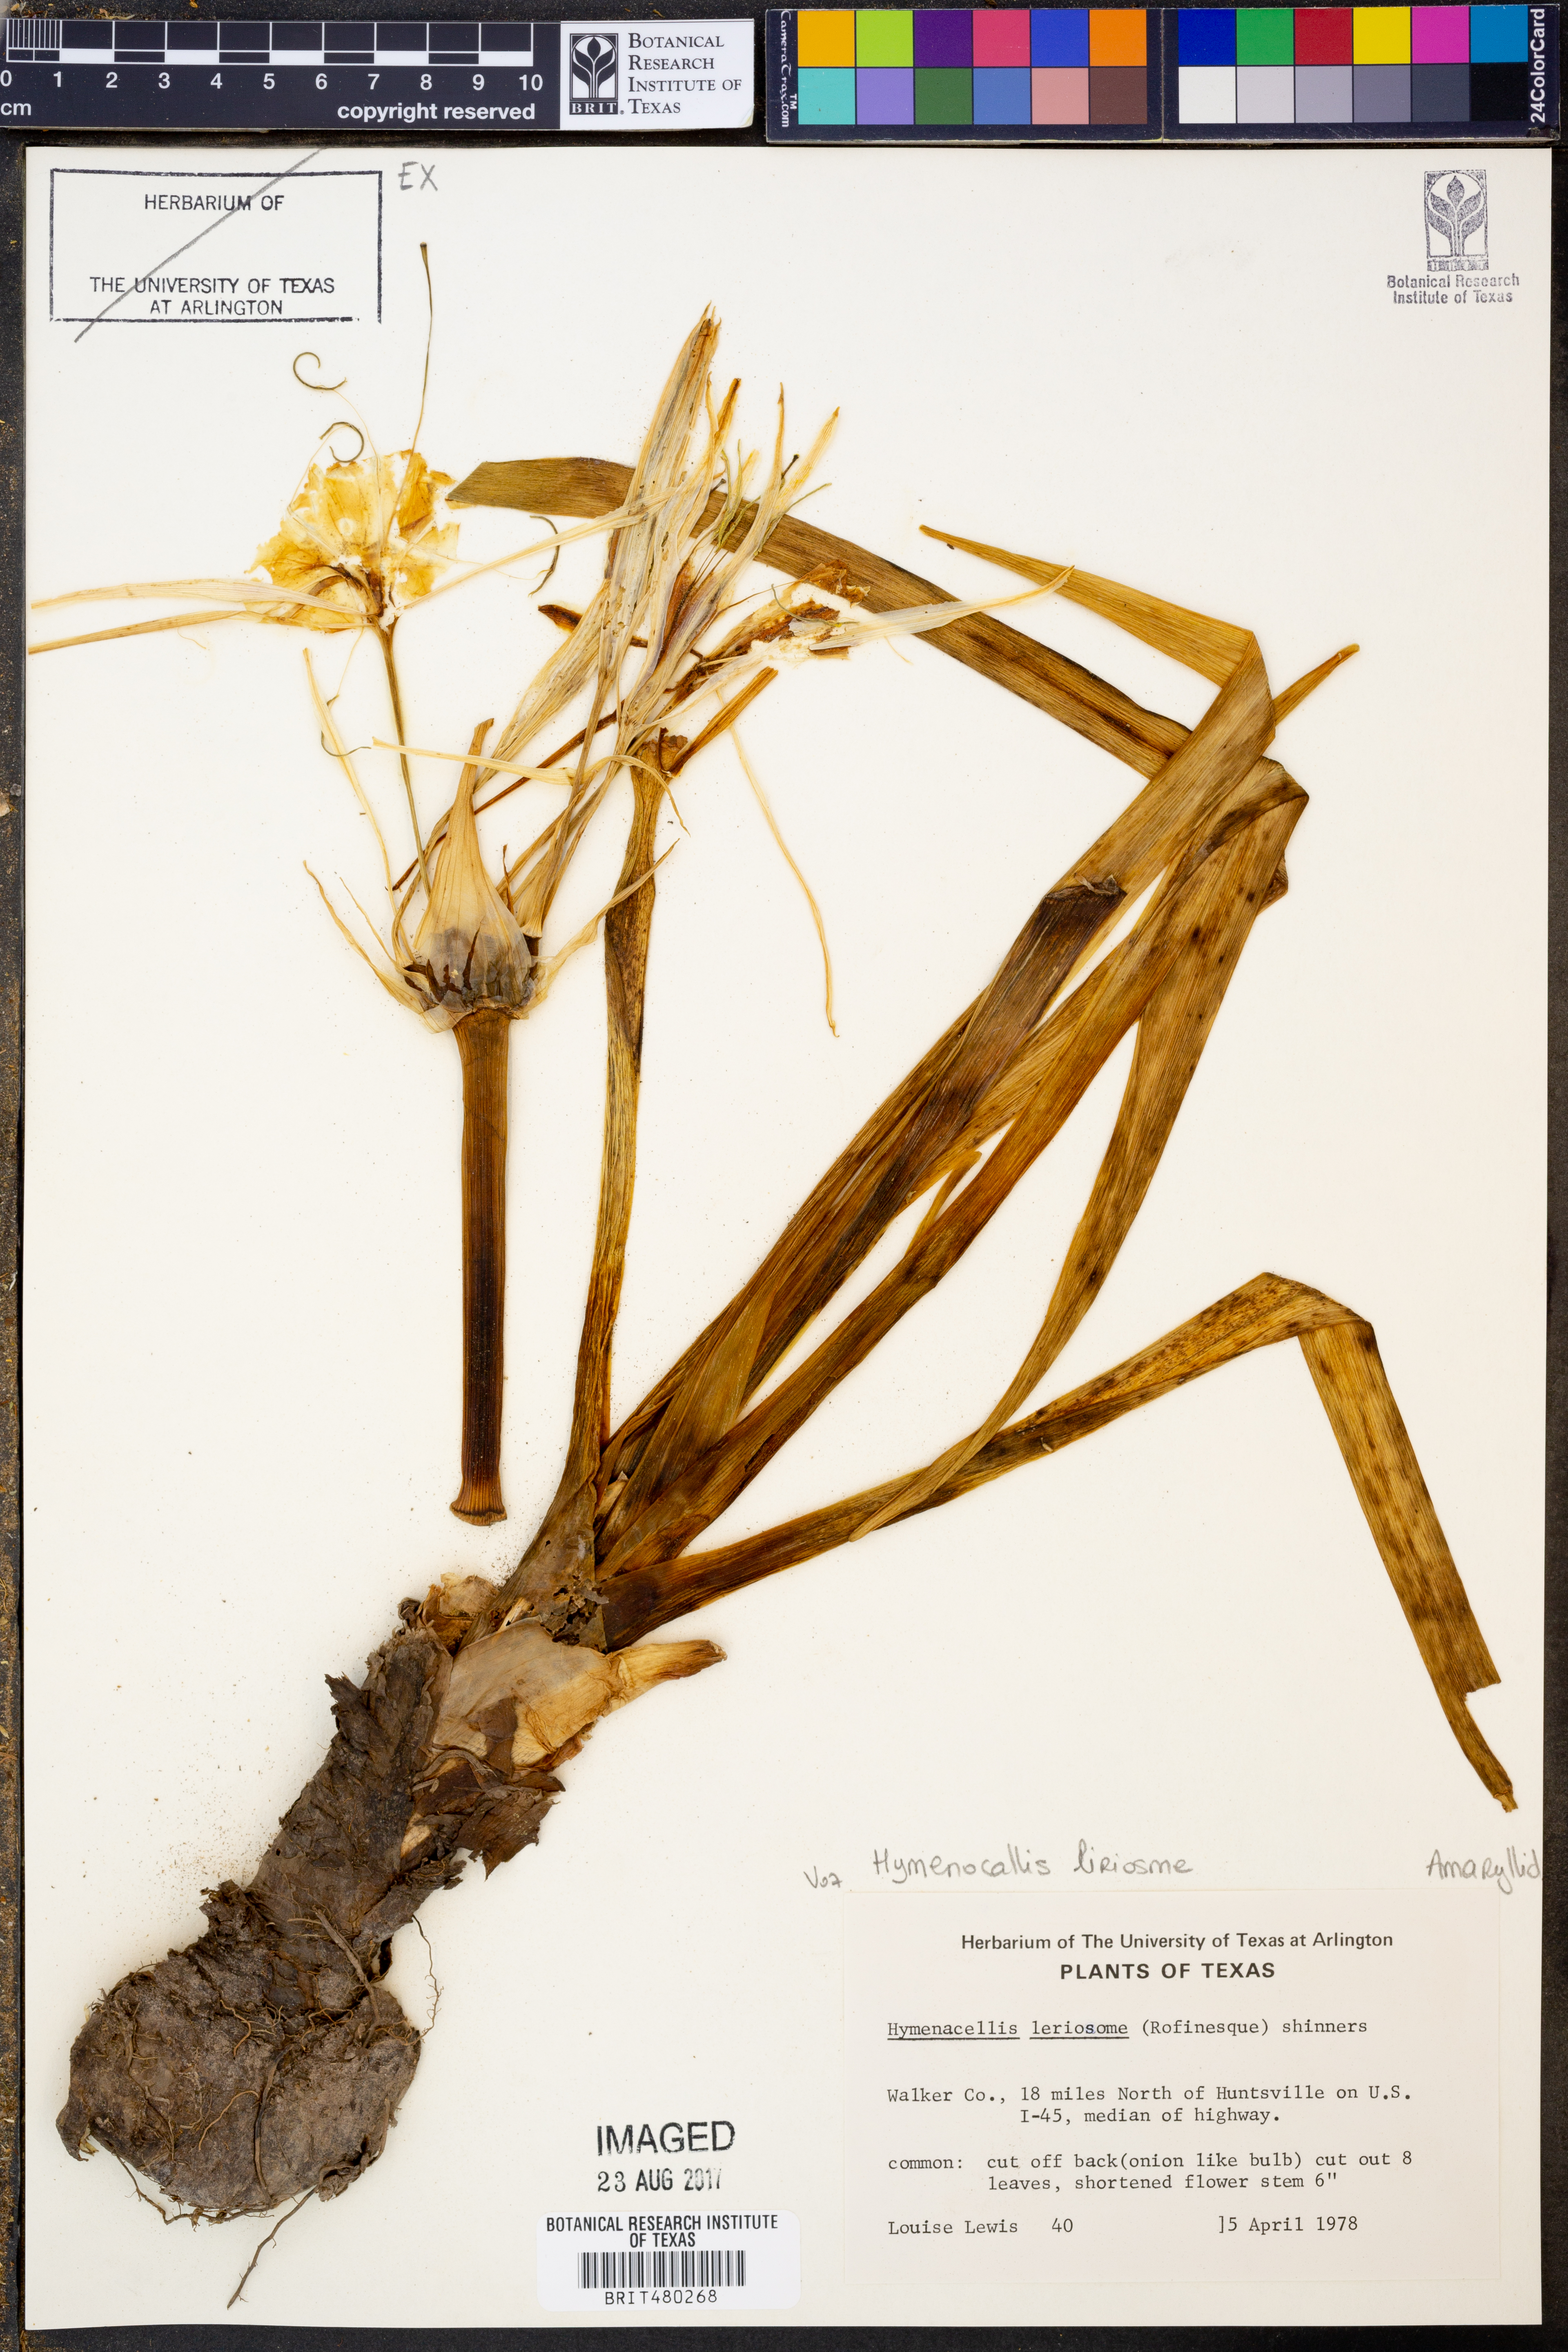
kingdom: Plantae
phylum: Tracheophyta
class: Liliopsida
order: Asparagales
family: Amaryllidaceae
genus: Hymenocallis
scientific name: Hymenocallis liriosme
